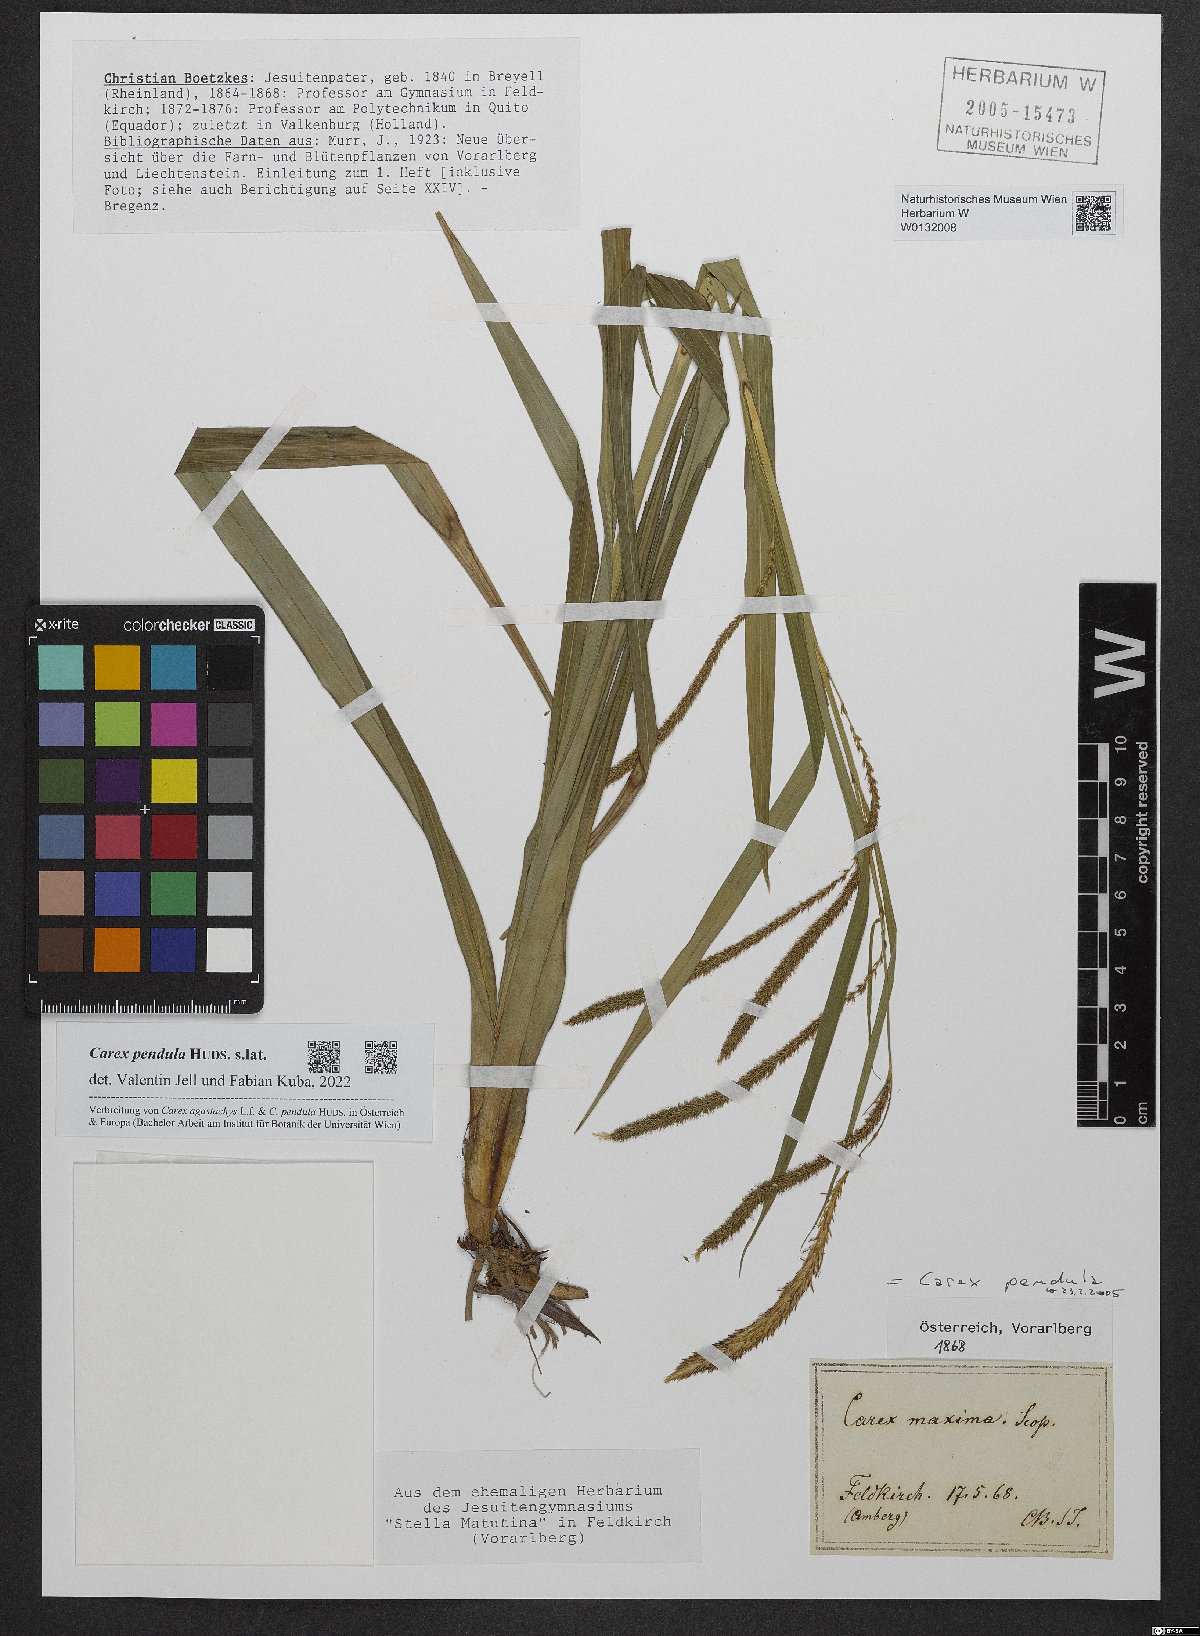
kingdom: Plantae
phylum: Tracheophyta
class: Liliopsida
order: Poales
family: Cyperaceae
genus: Carex
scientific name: Carex pendula
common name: Pendulous sedge
